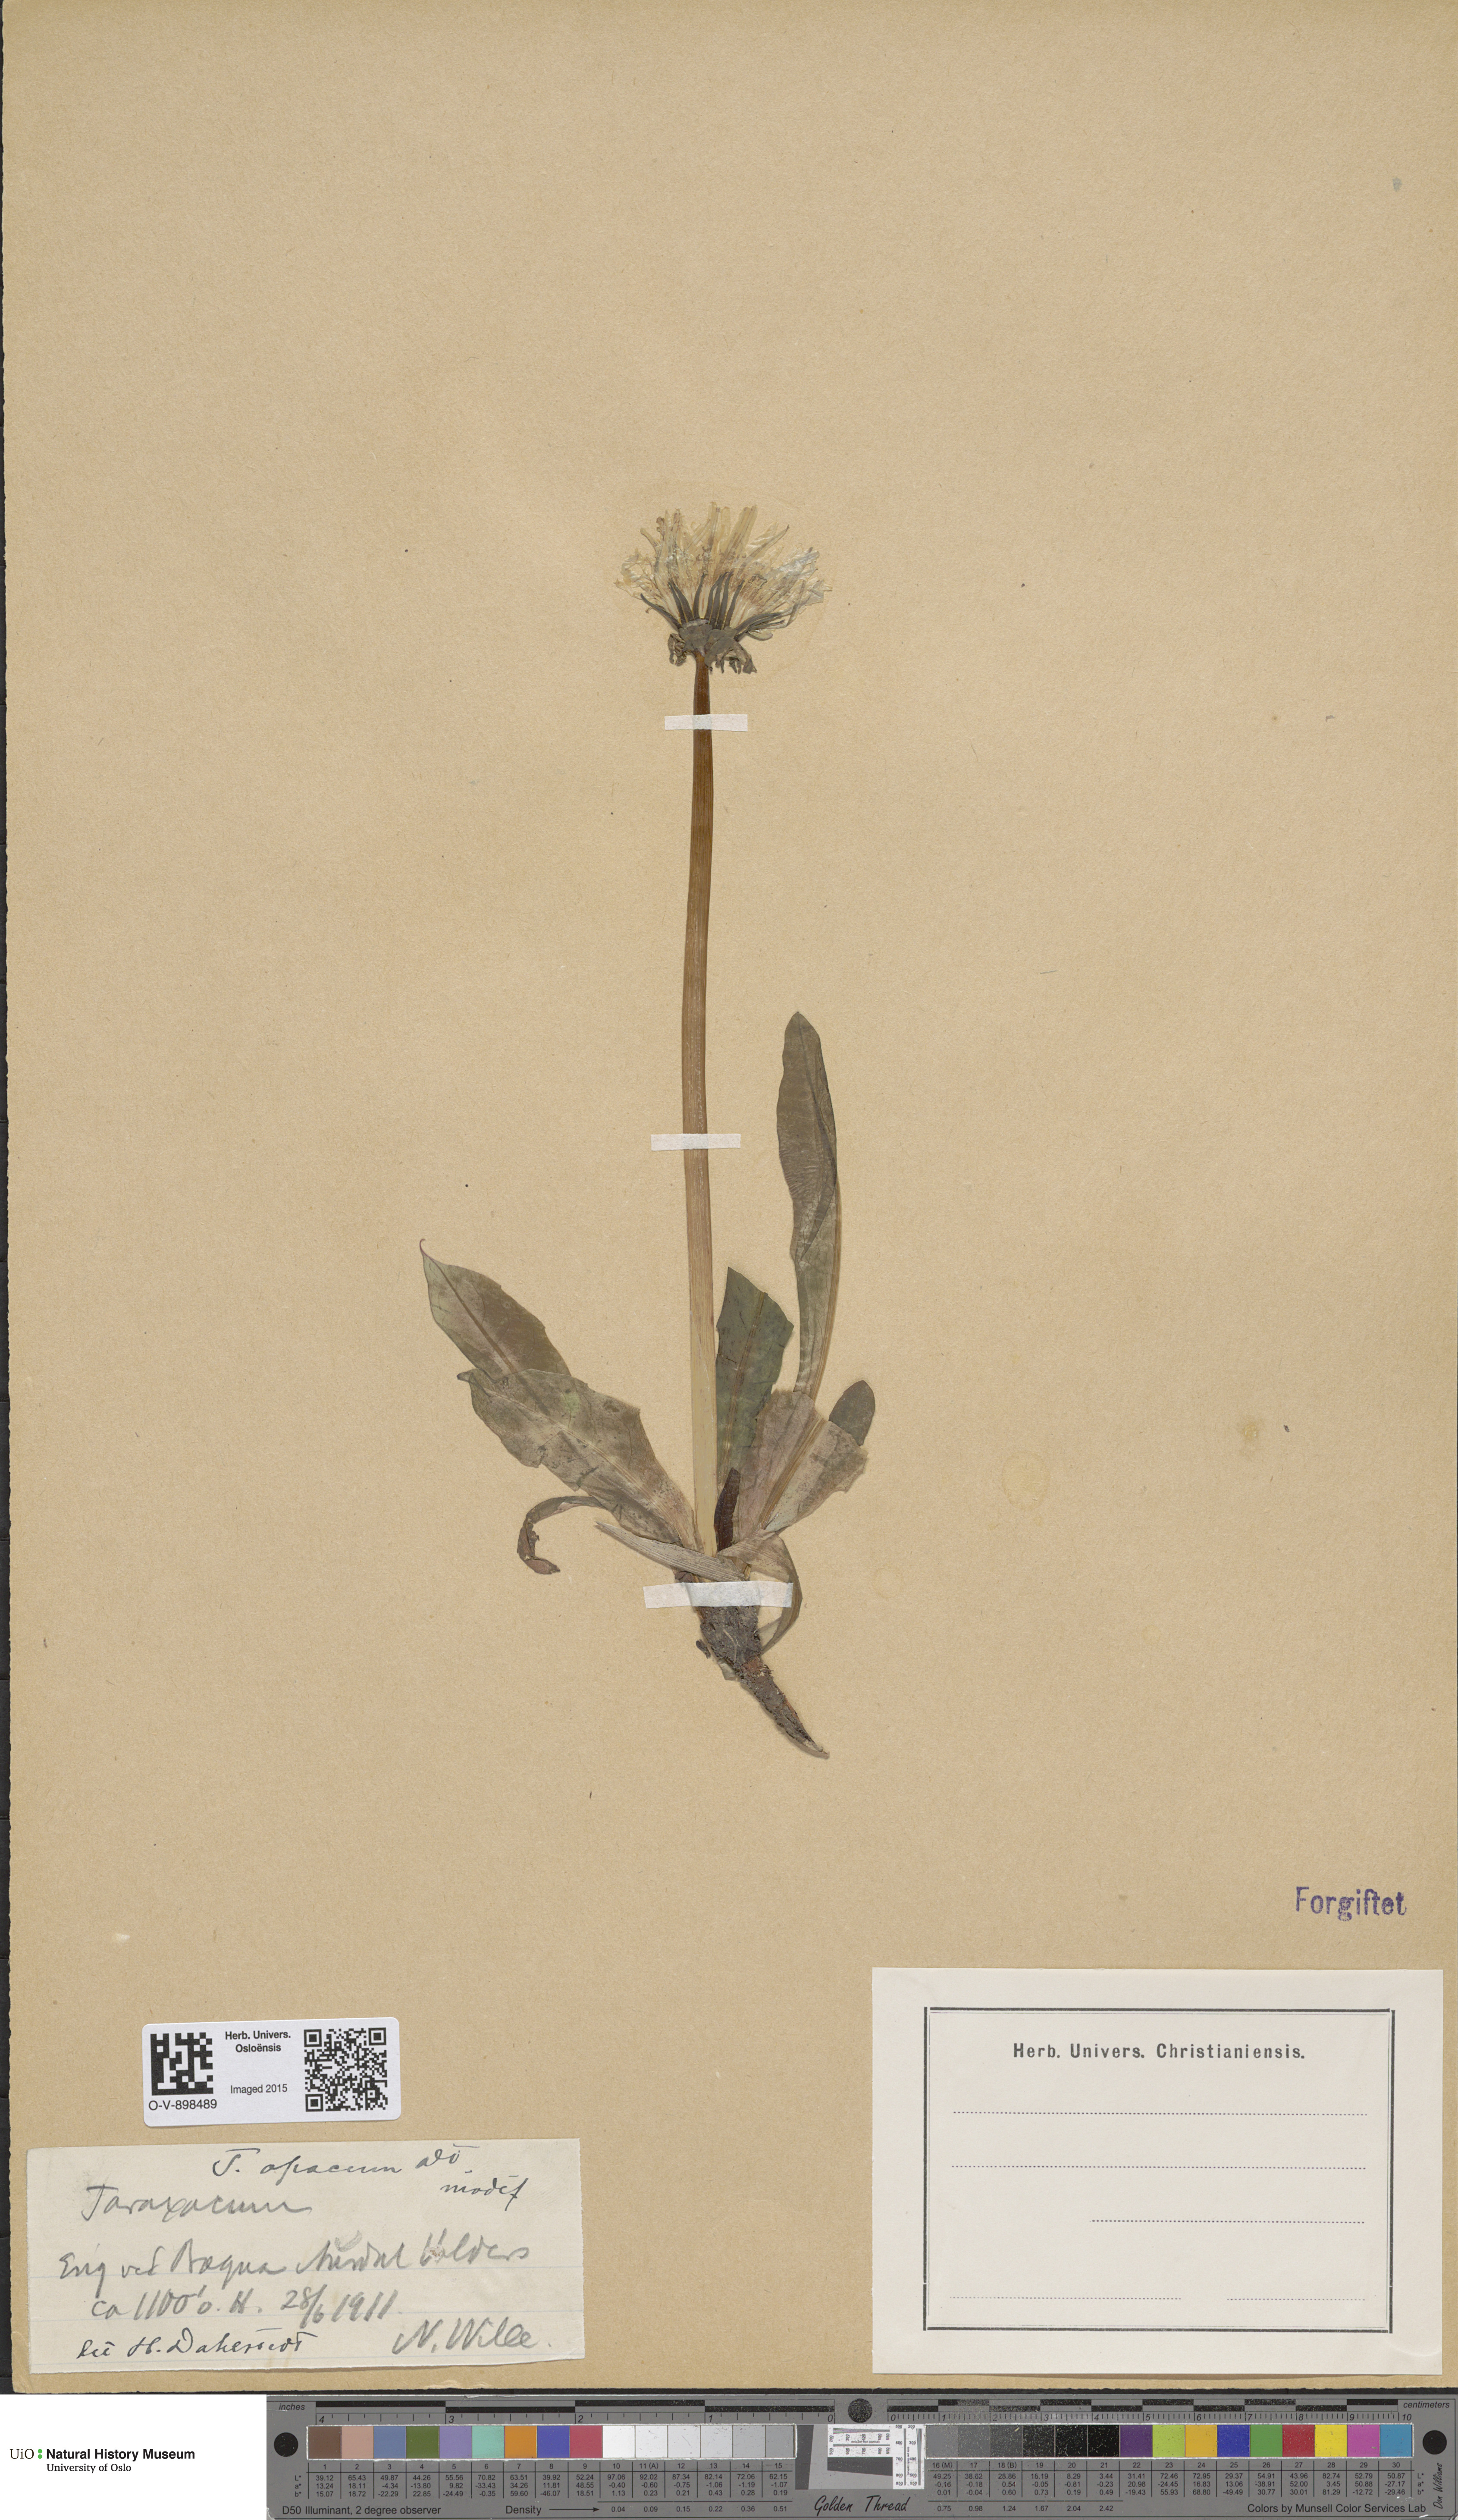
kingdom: Plantae
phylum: Tracheophyta
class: Magnoliopsida
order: Asterales
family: Asteraceae
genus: Taraxacum
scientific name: Taraxacum opacum
